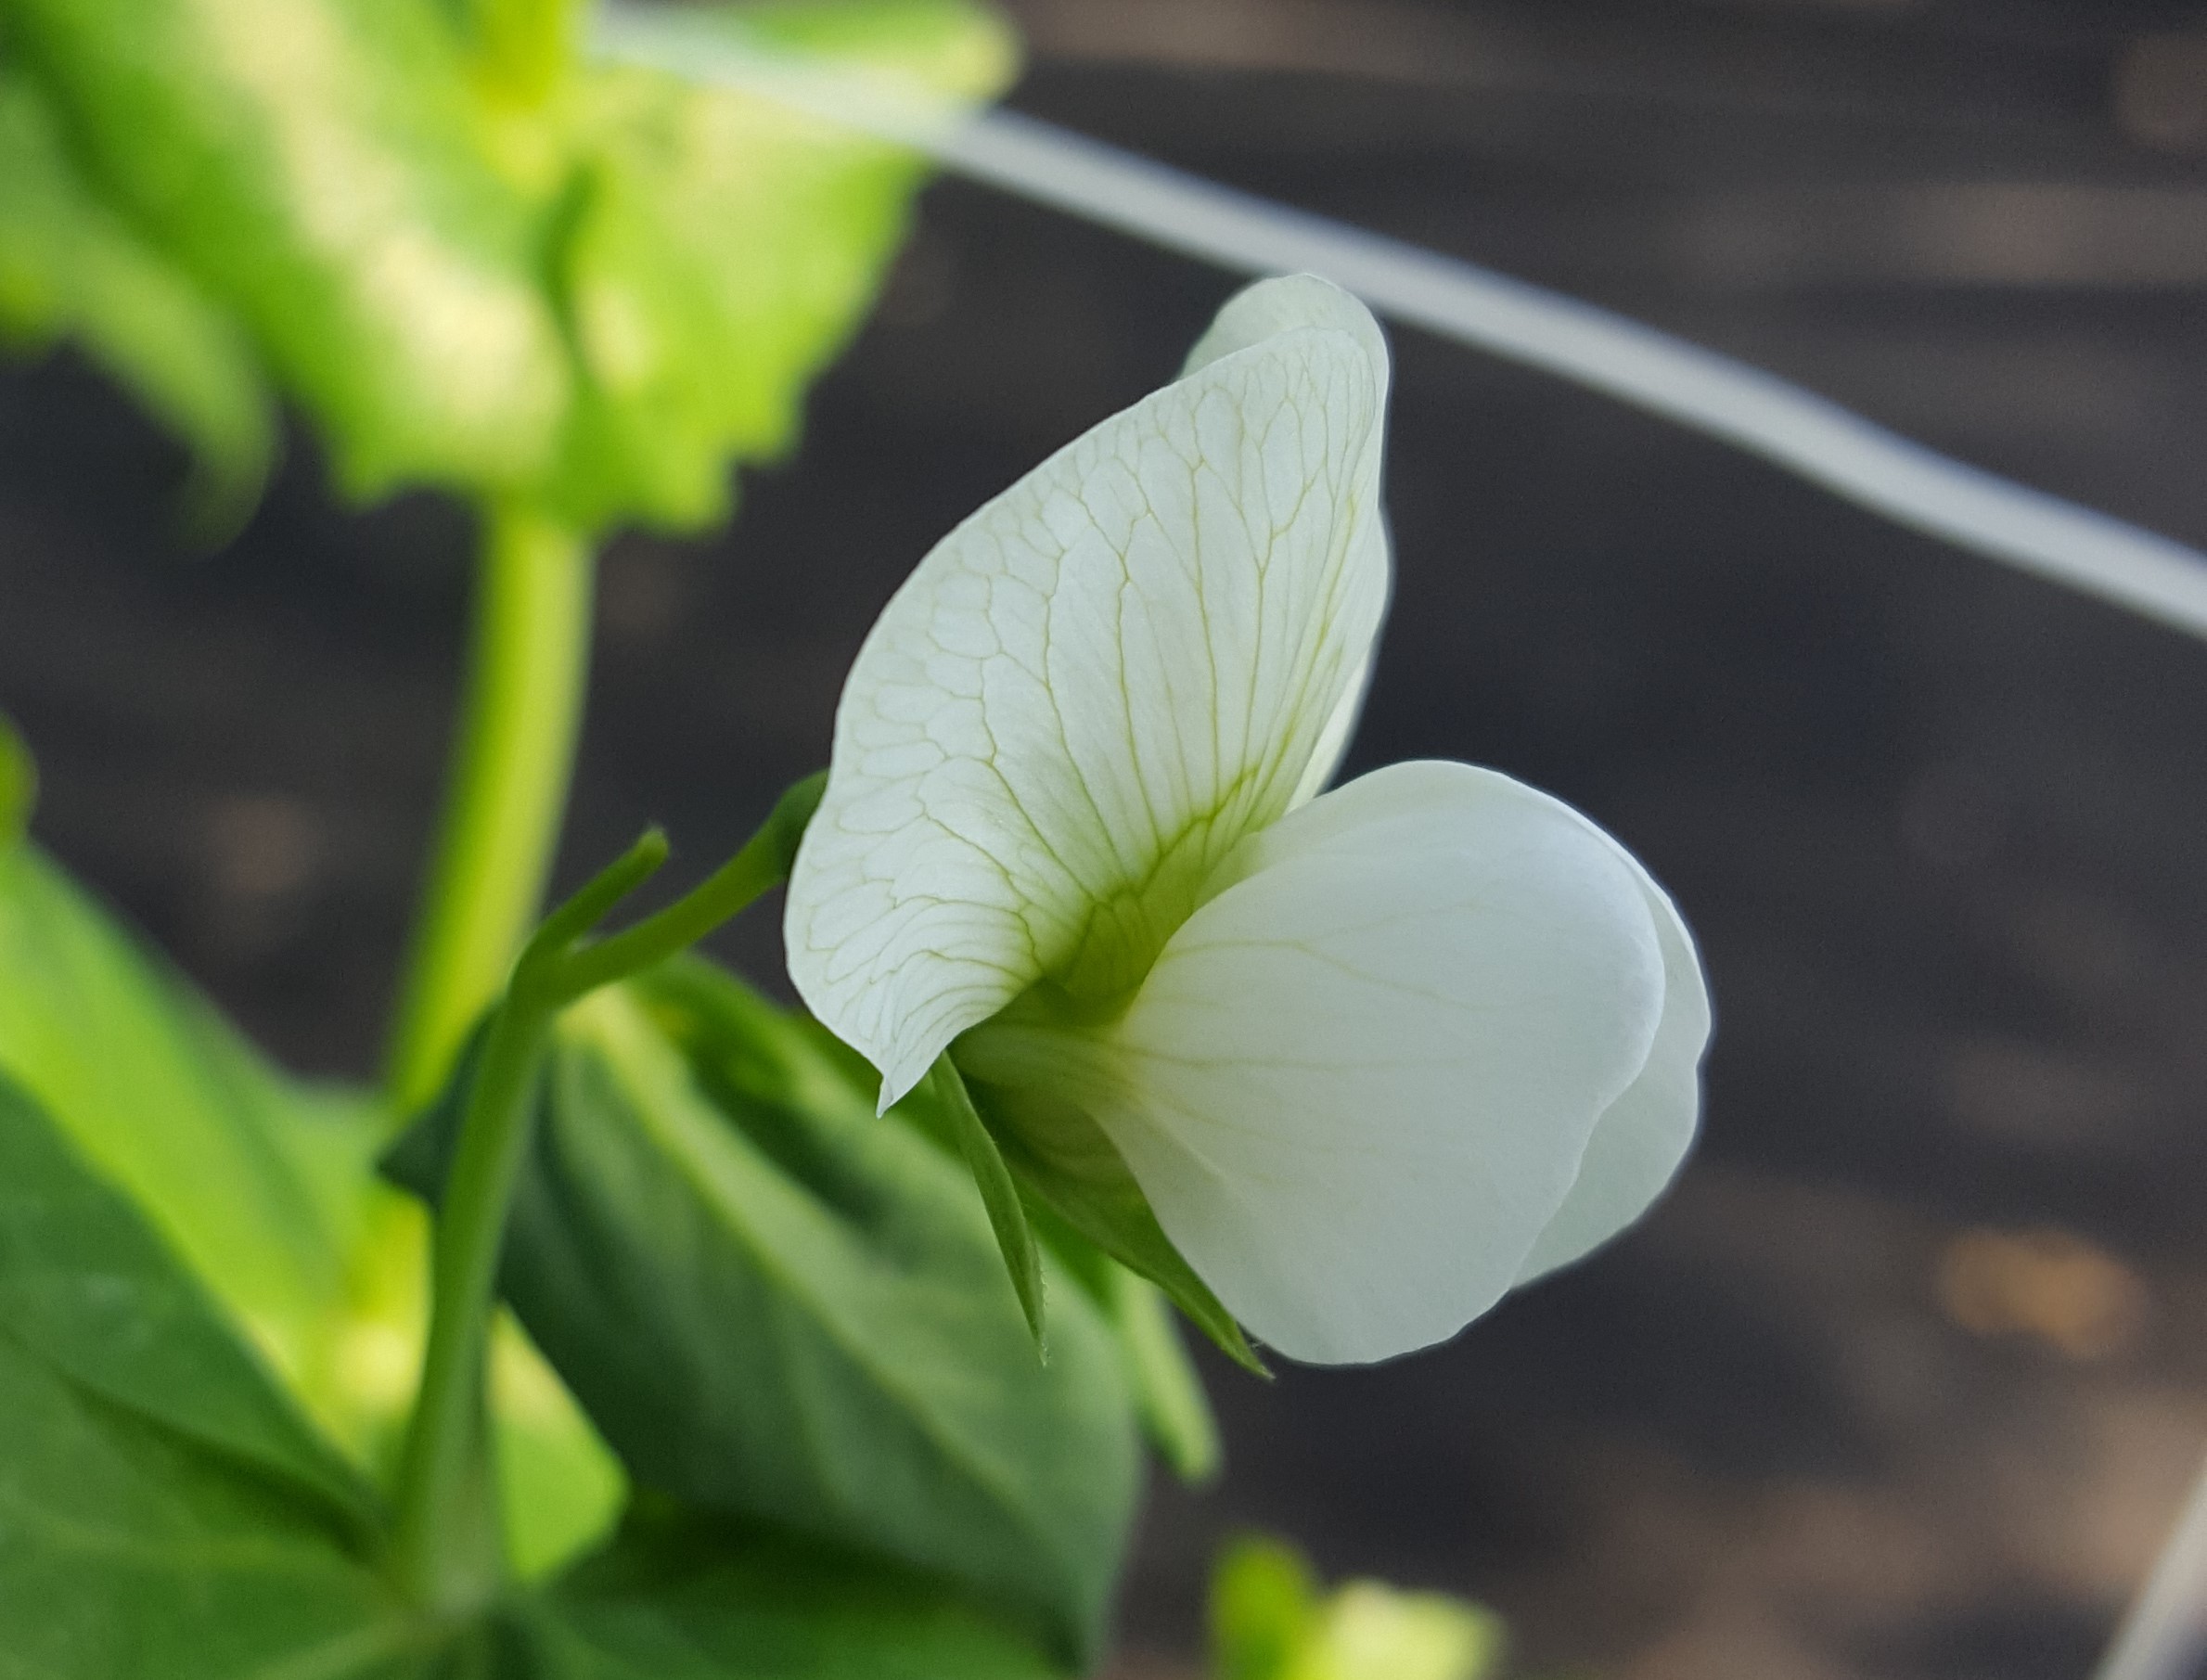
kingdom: Plantae
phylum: Tracheophyta
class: Magnoliopsida
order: Fabales
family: Fabaceae
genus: Lathyrus
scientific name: Lathyrus oleraceus
